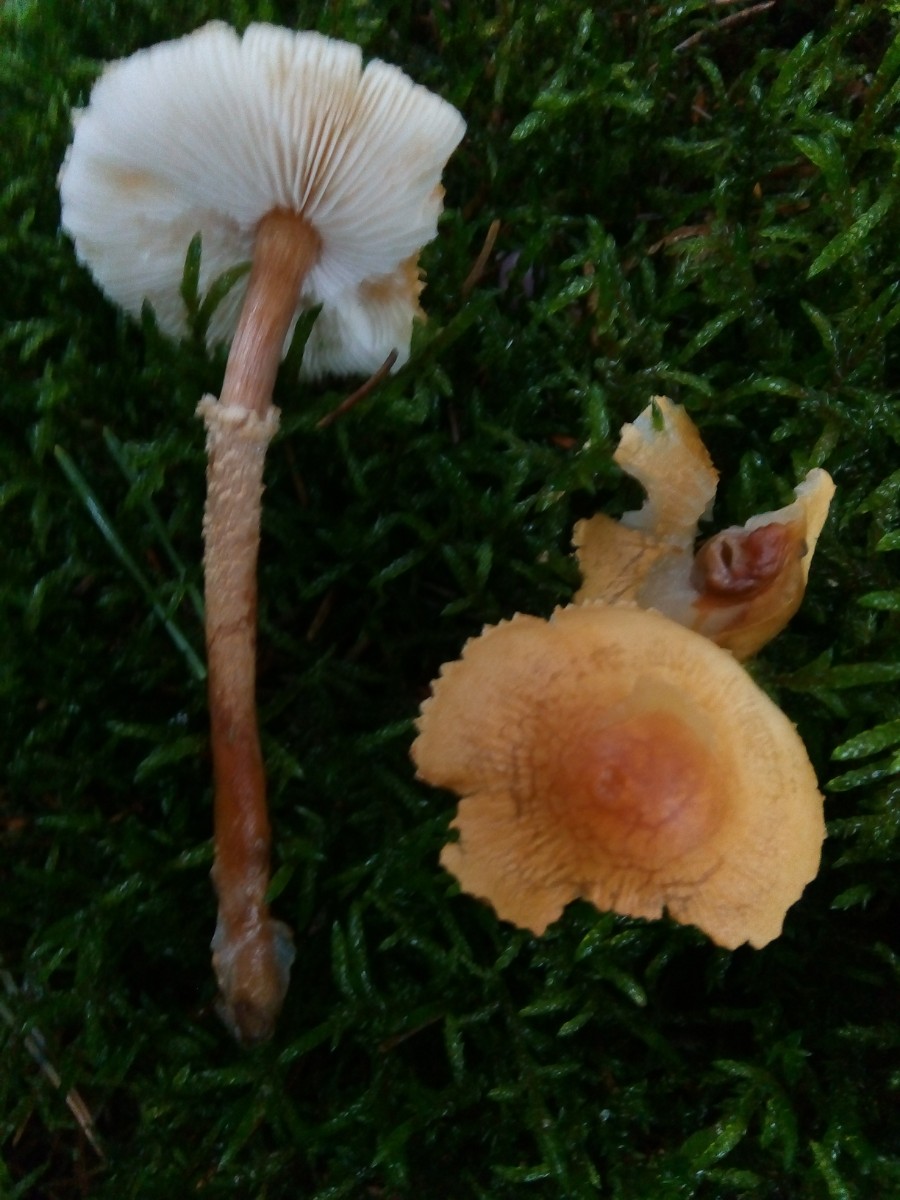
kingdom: Fungi
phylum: Basidiomycota
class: Agaricomycetes
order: Agaricales
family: Tricholomataceae
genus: Cystoderma
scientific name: Cystoderma amianthinum
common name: okkergul grynhat
